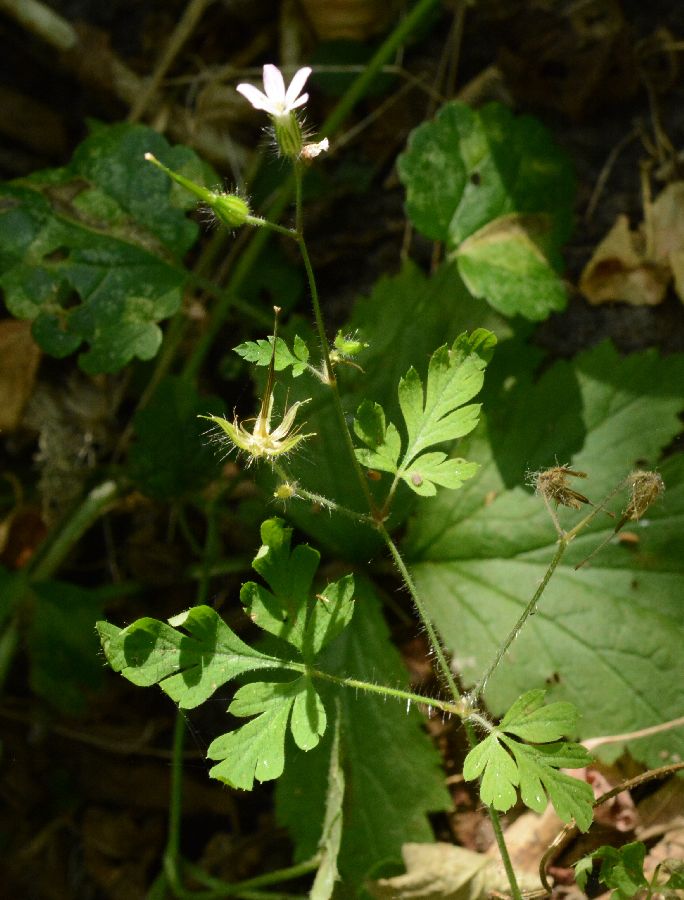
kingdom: Plantae
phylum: Tracheophyta
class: Magnoliopsida
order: Geraniales
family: Geraniaceae
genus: Geranium
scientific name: Geranium robertianum
